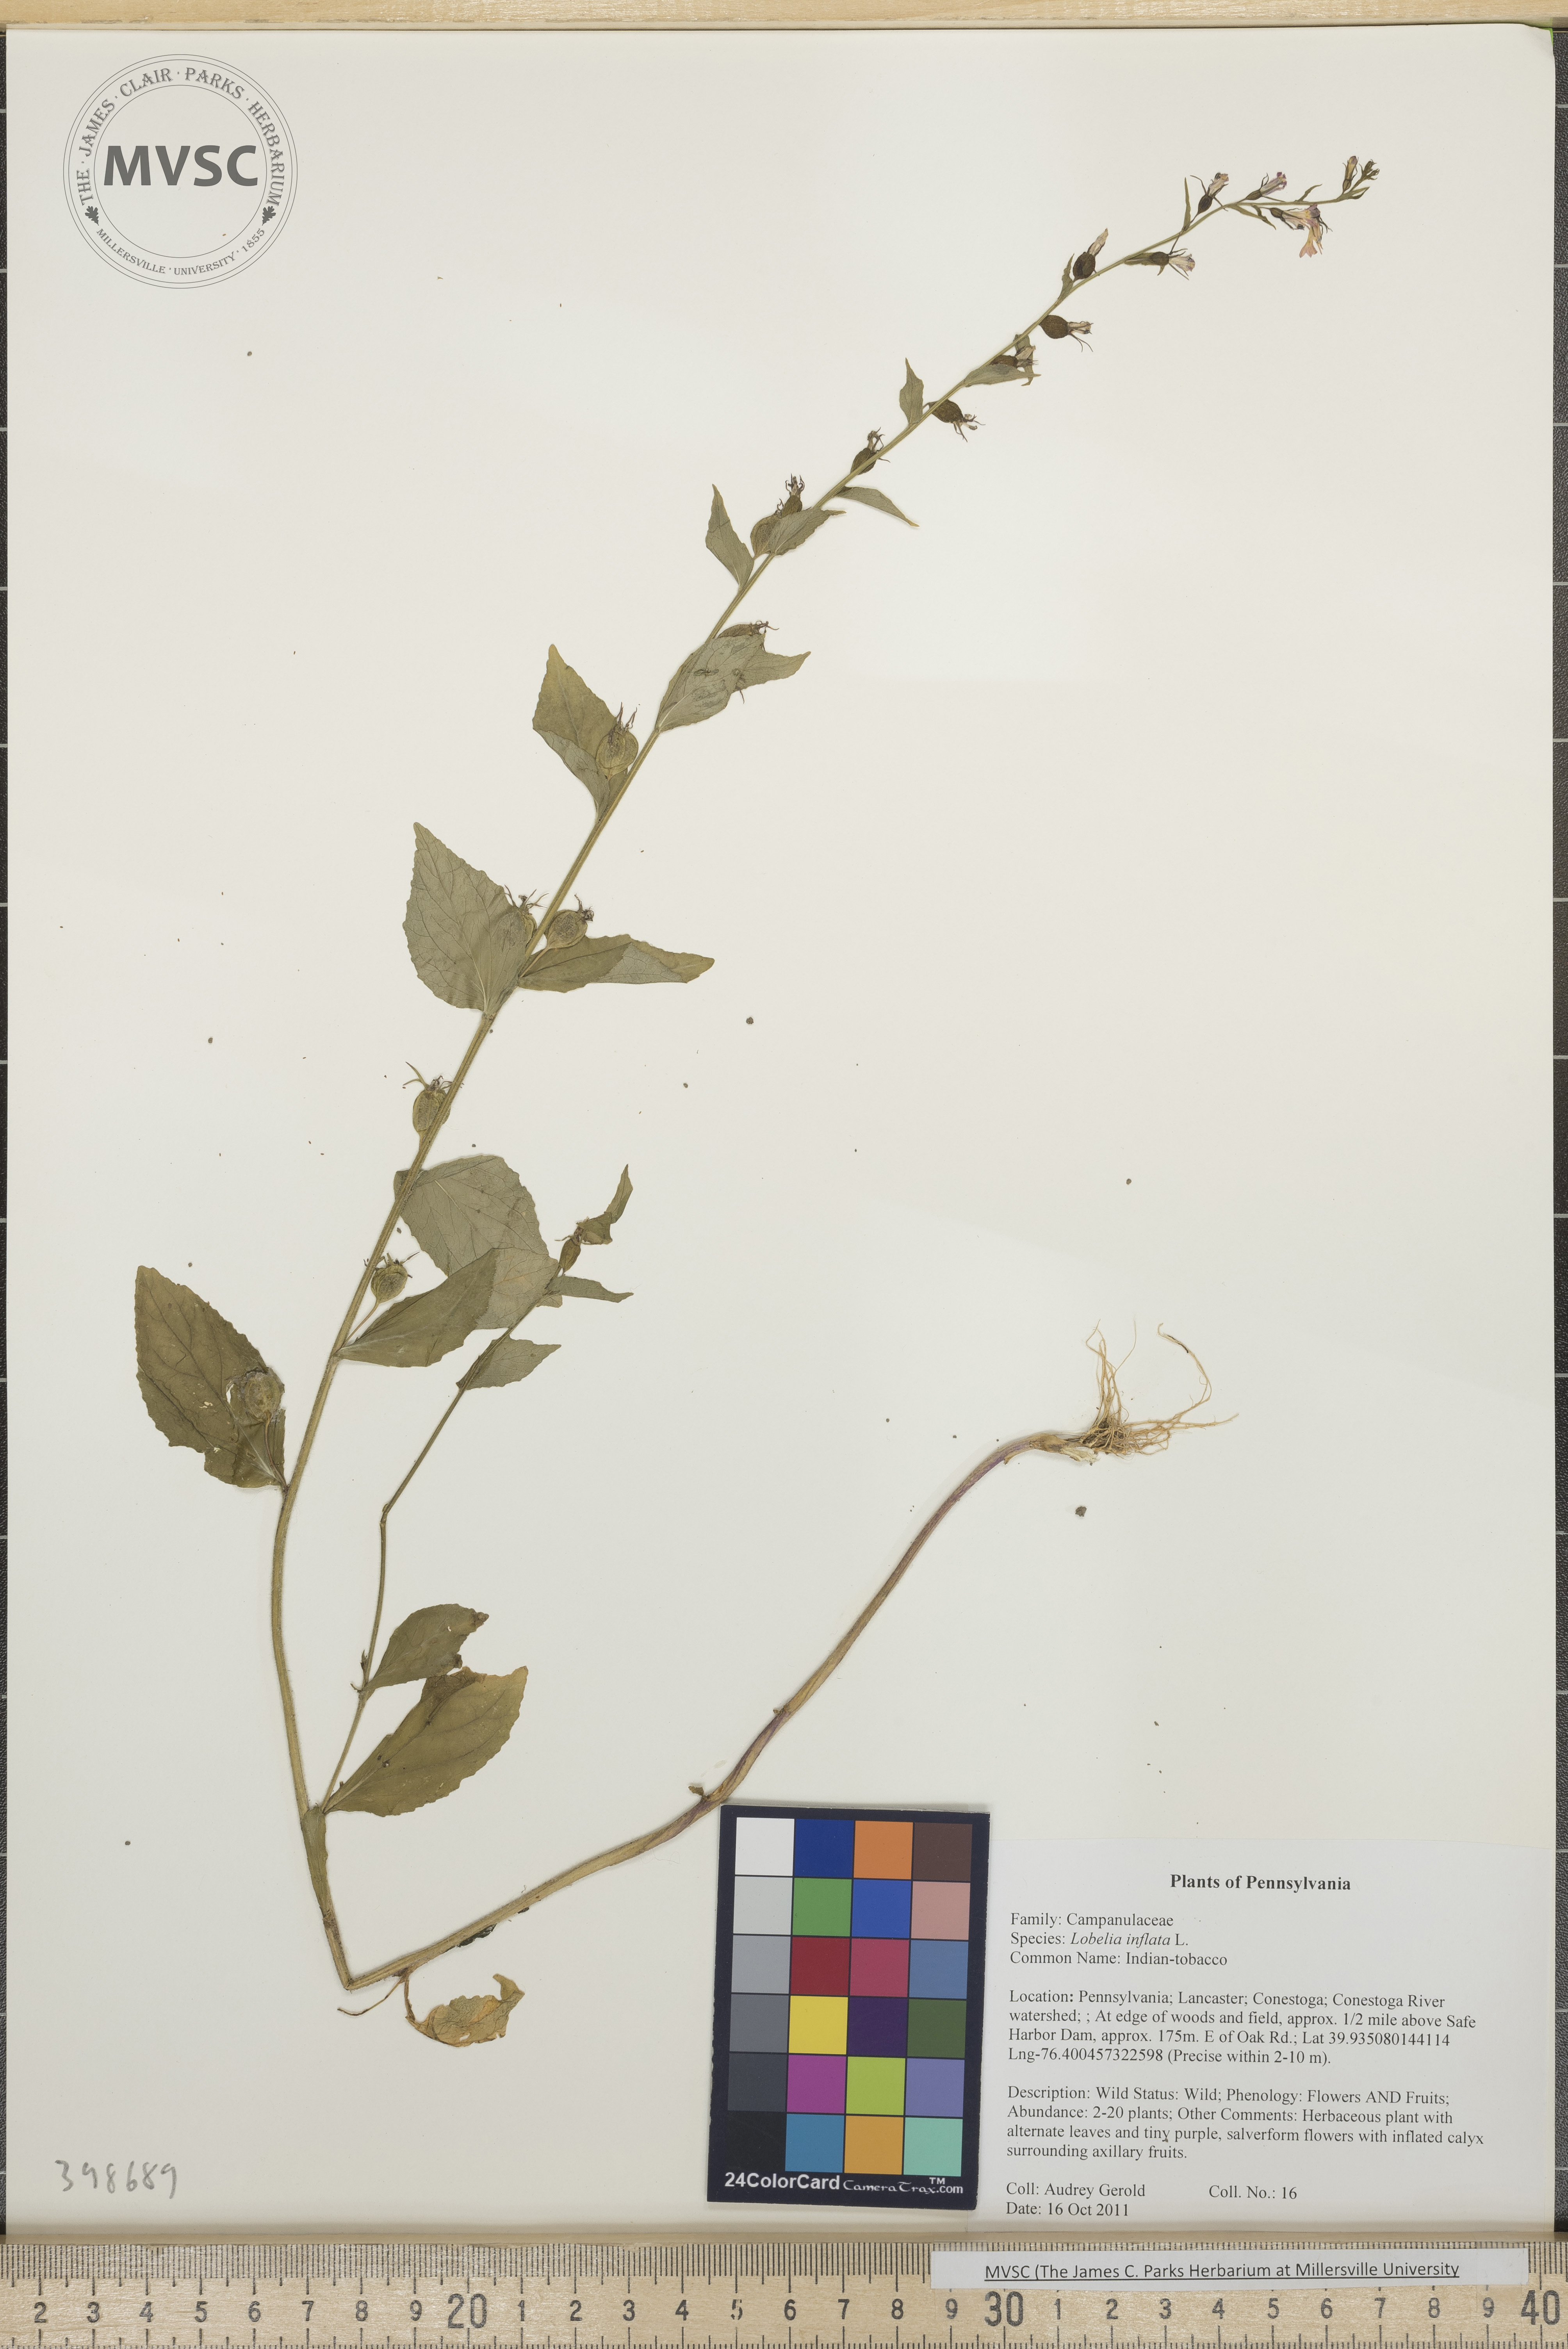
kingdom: Plantae
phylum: Tracheophyta
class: Magnoliopsida
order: Asterales
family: Campanulaceae
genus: Lobelia
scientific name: Lobelia inflata
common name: Indian-tobacco
